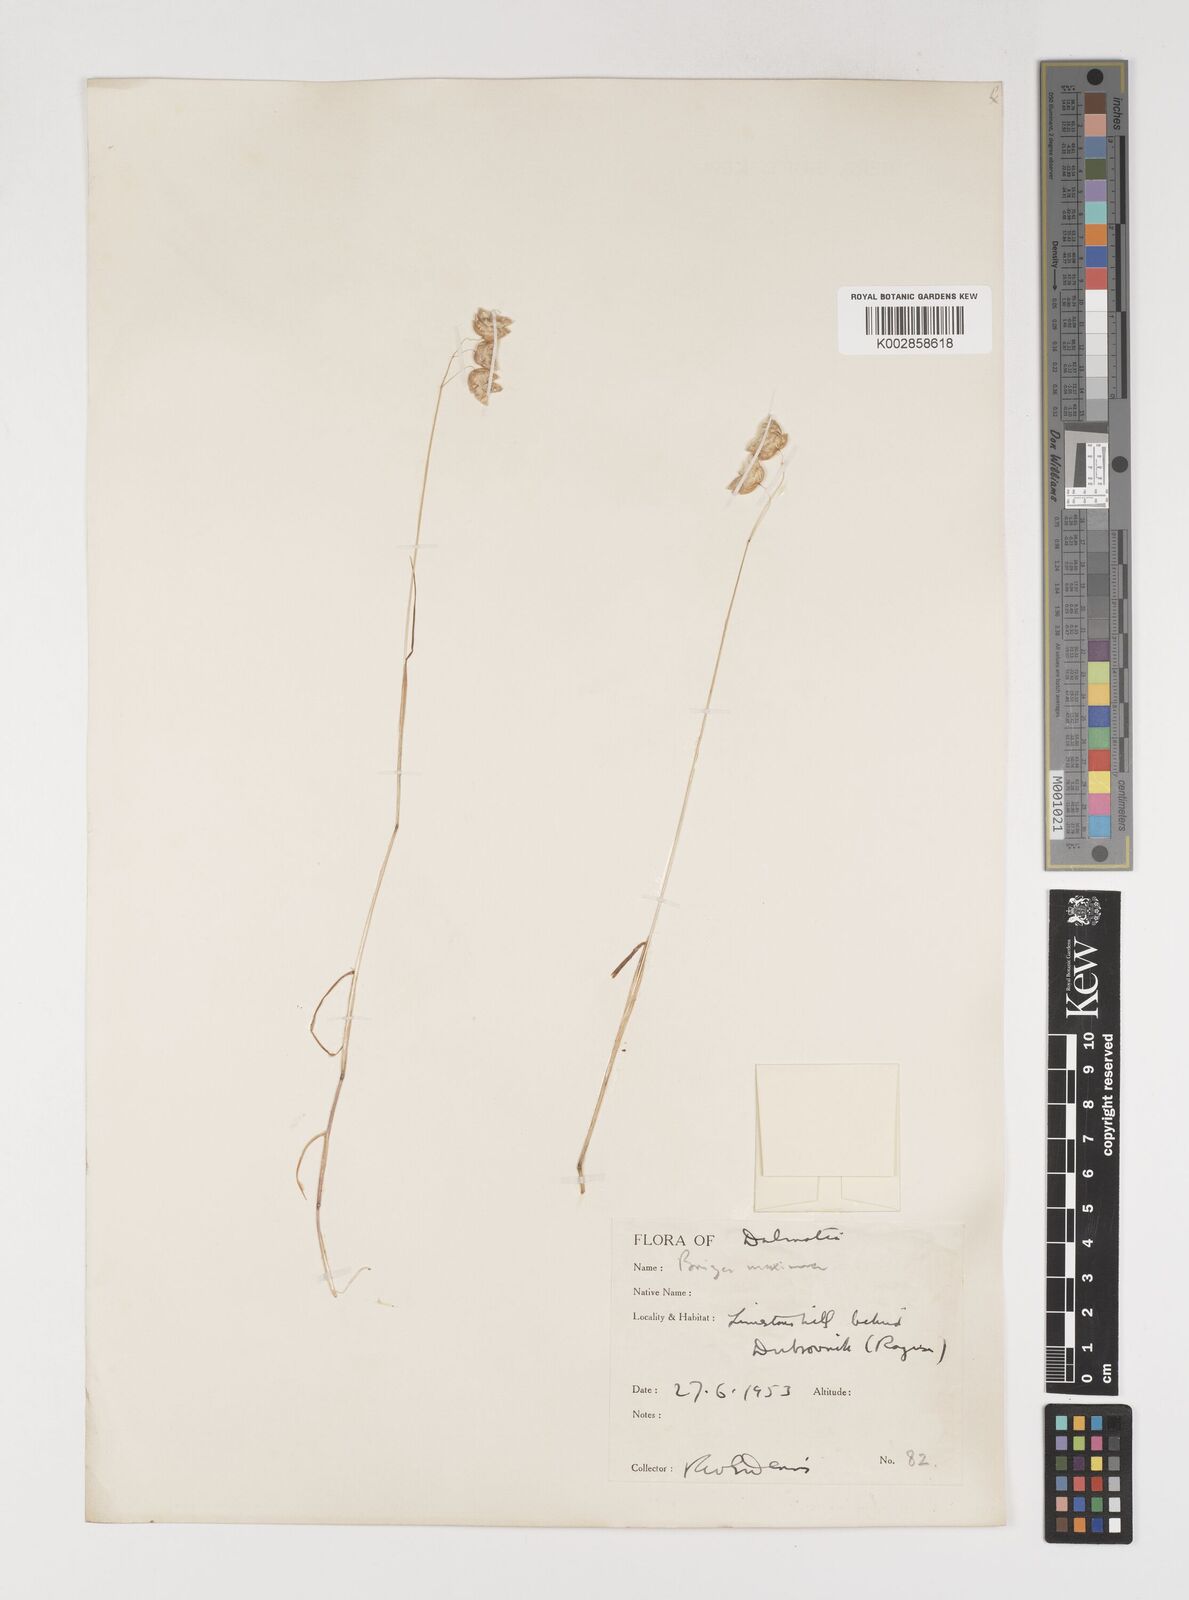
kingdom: Plantae
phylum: Tracheophyta
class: Liliopsida
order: Poales
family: Poaceae
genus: Briza
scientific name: Briza maxima
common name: Big quakinggrass
